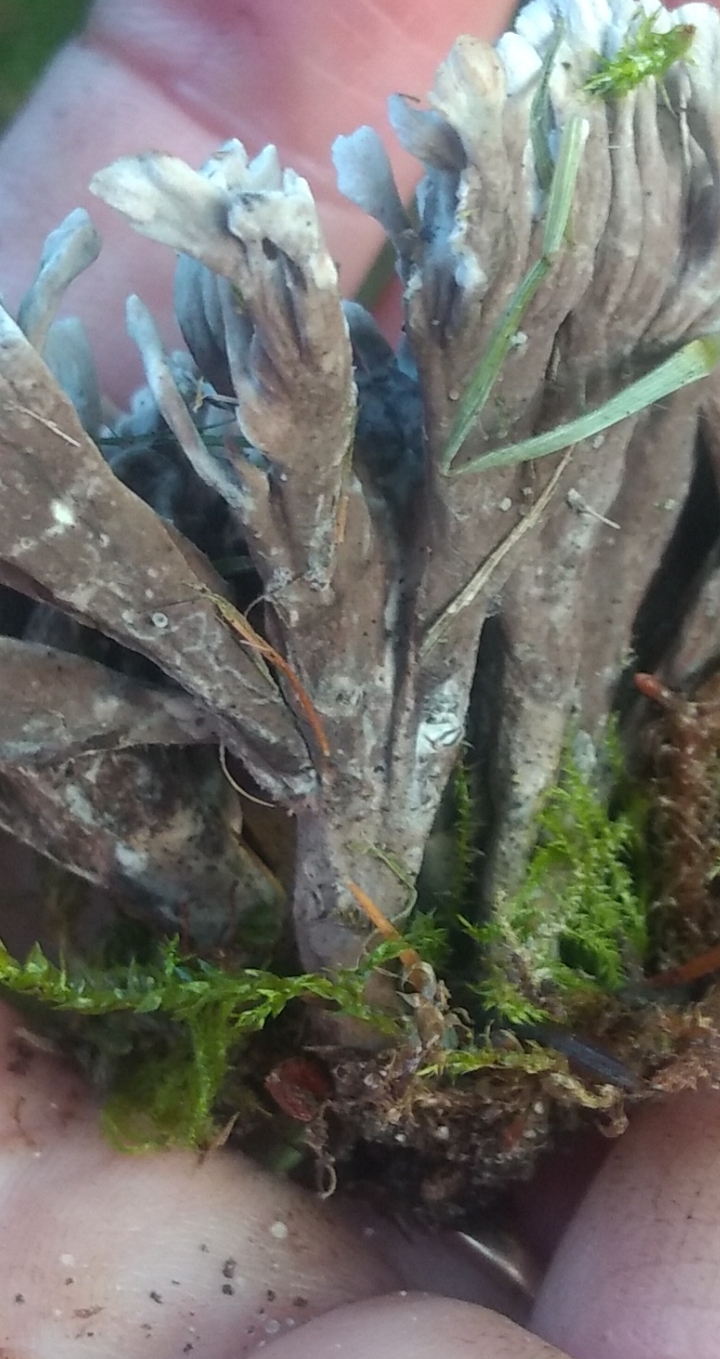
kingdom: Fungi
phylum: Basidiomycota
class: Agaricomycetes
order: Thelephorales
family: Thelephoraceae
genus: Thelephora
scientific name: Thelephora palmata
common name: grenet frynsesvamp
